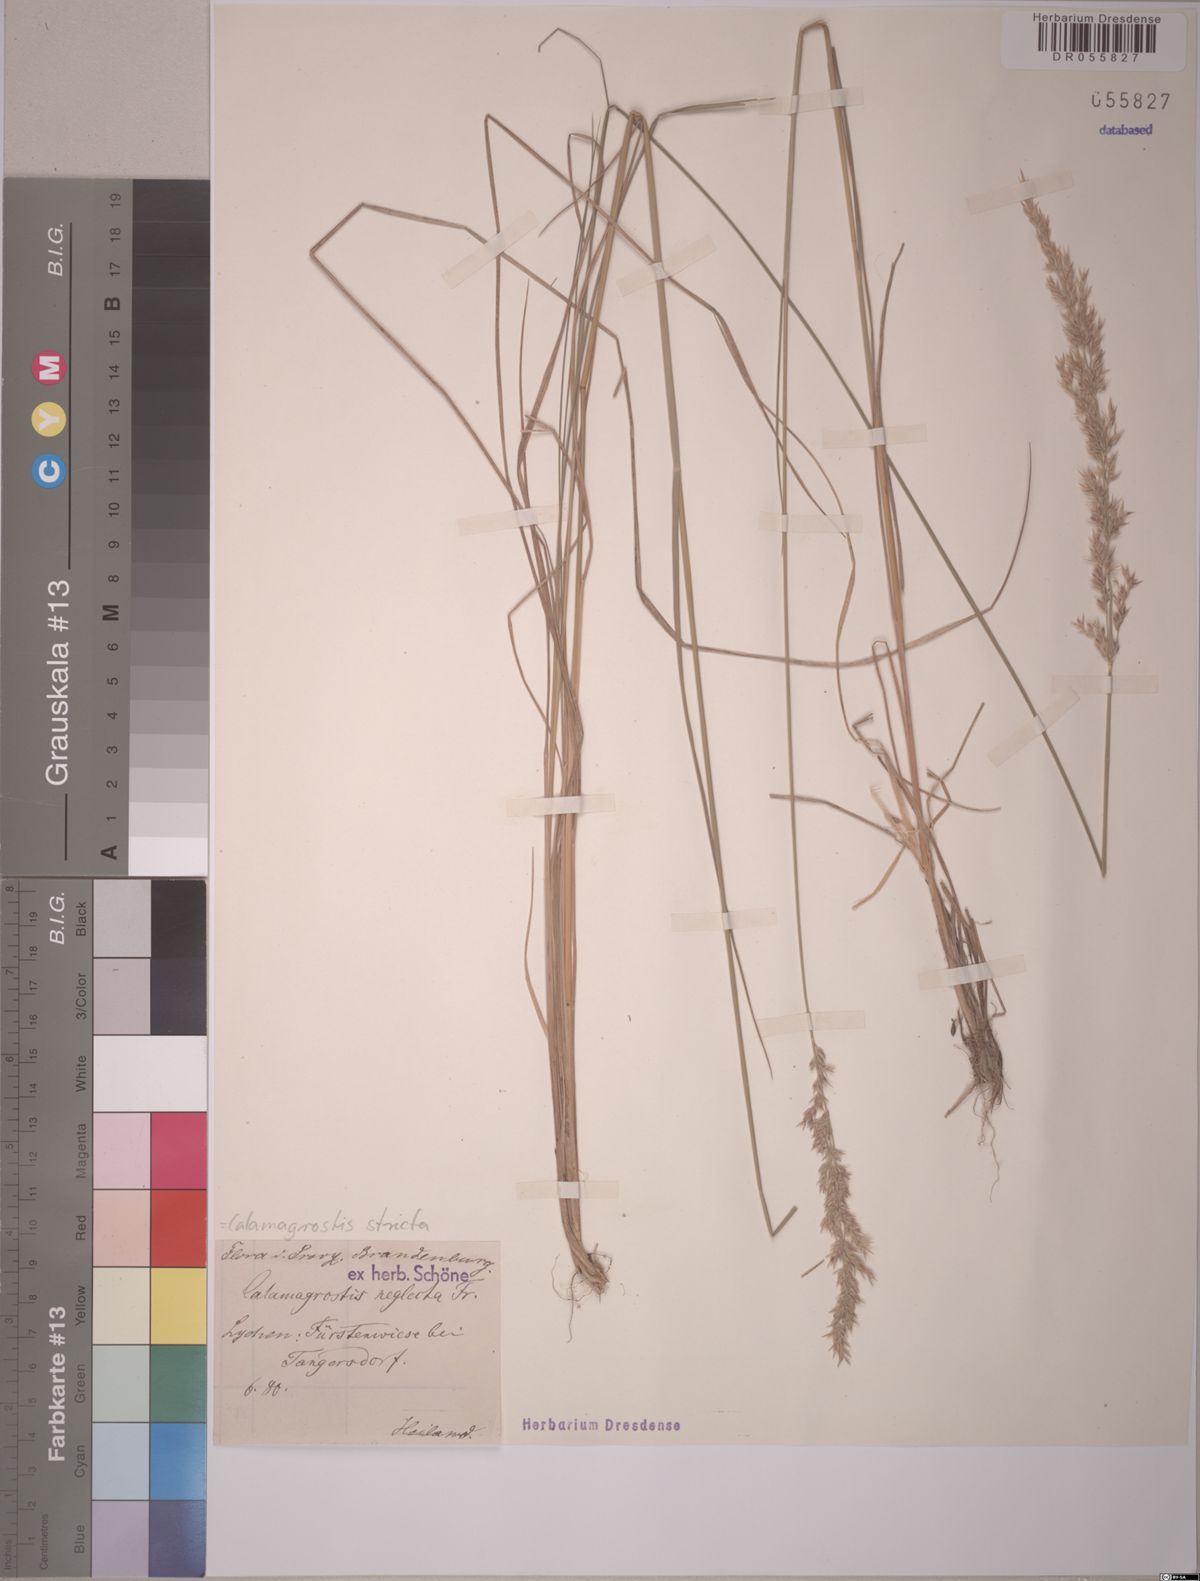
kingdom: Plantae
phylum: Tracheophyta
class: Liliopsida
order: Poales
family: Poaceae
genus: Calamagrostis
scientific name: Calamagrostis stricta
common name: Narrow small-reed
